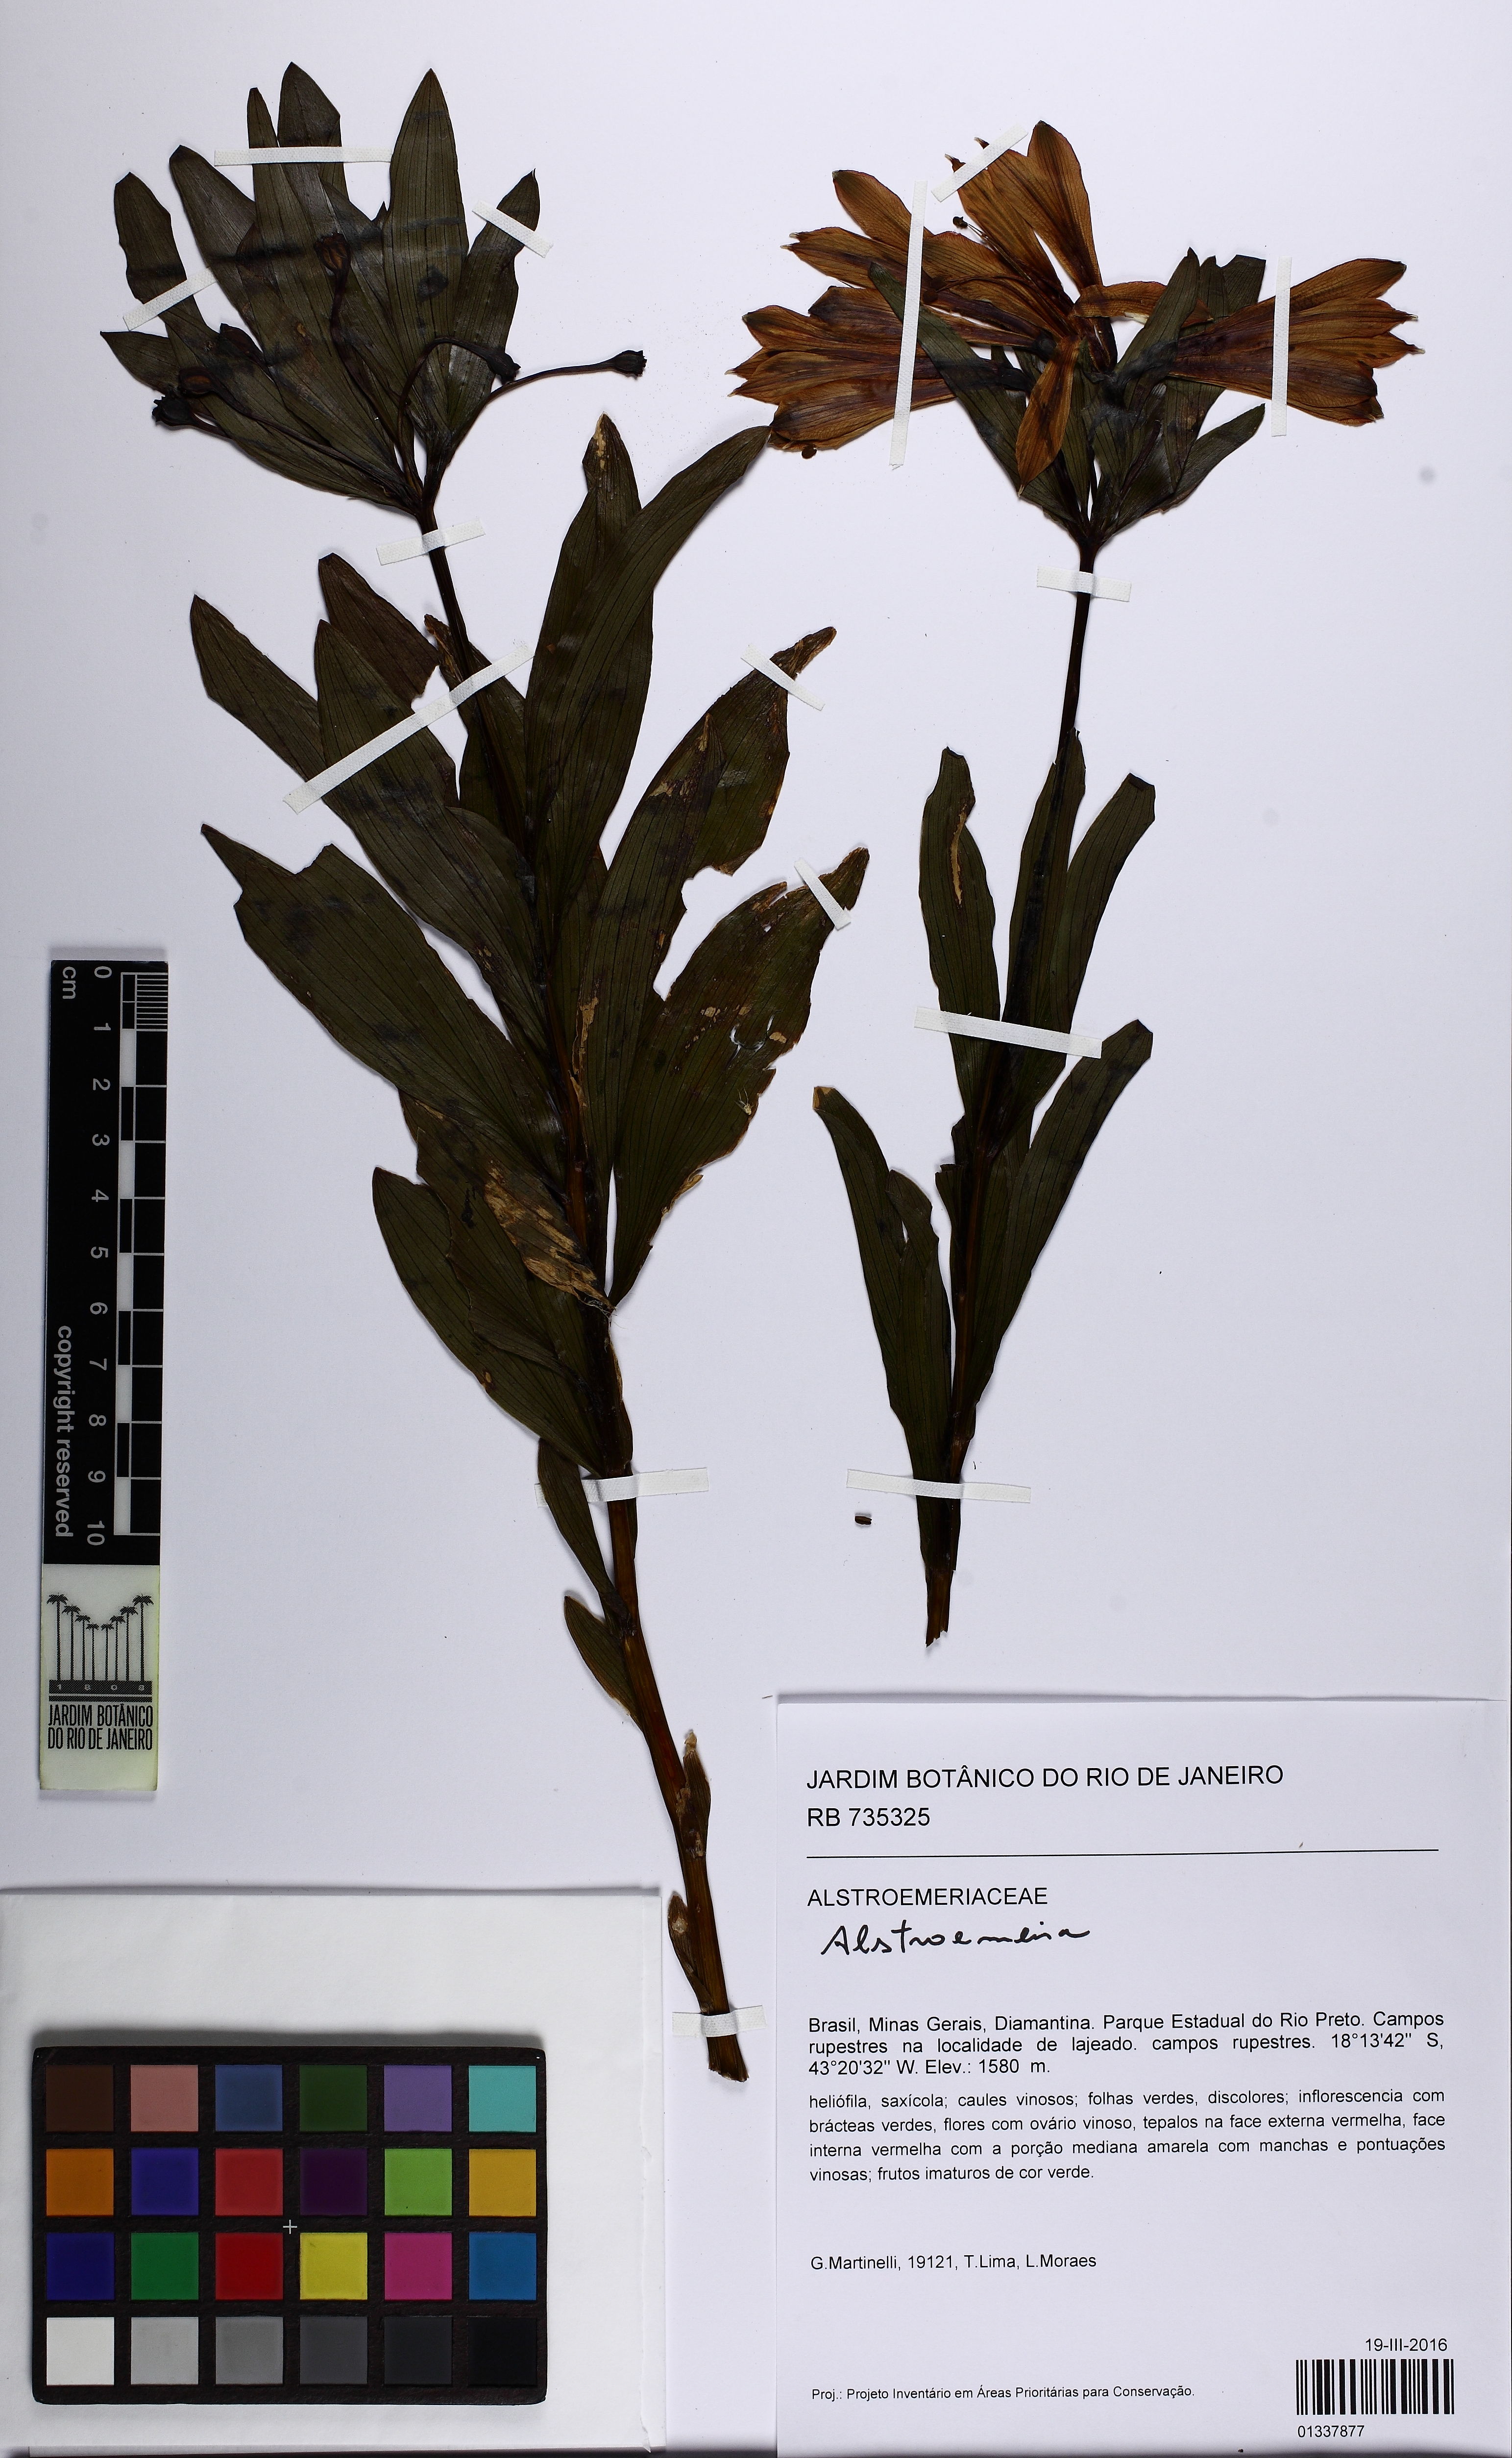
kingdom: Plantae
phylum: Tracheophyta
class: Liliopsida
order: Liliales
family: Alstroemeriaceae
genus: Alstroemeria
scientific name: Alstroemeria
